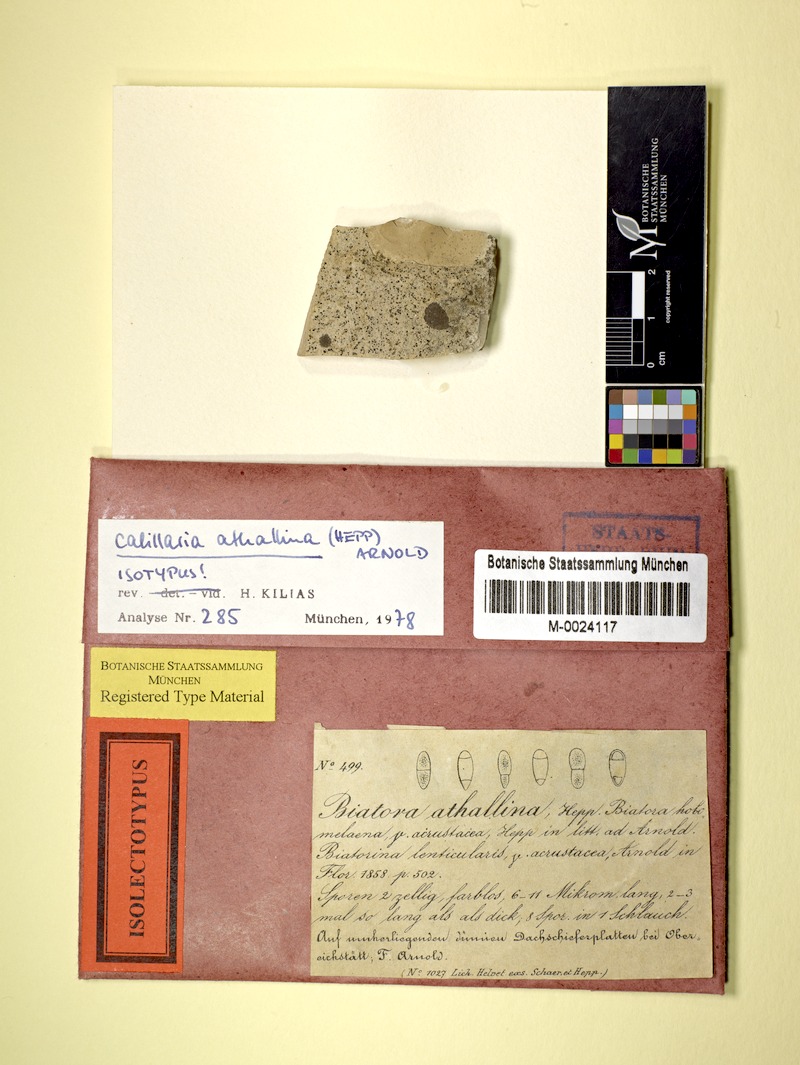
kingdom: Fungi
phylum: Ascomycota
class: Lecanoromycetes
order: Lecanorales
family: Ramalinaceae
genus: Kiliasia
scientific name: Kiliasia athallina
